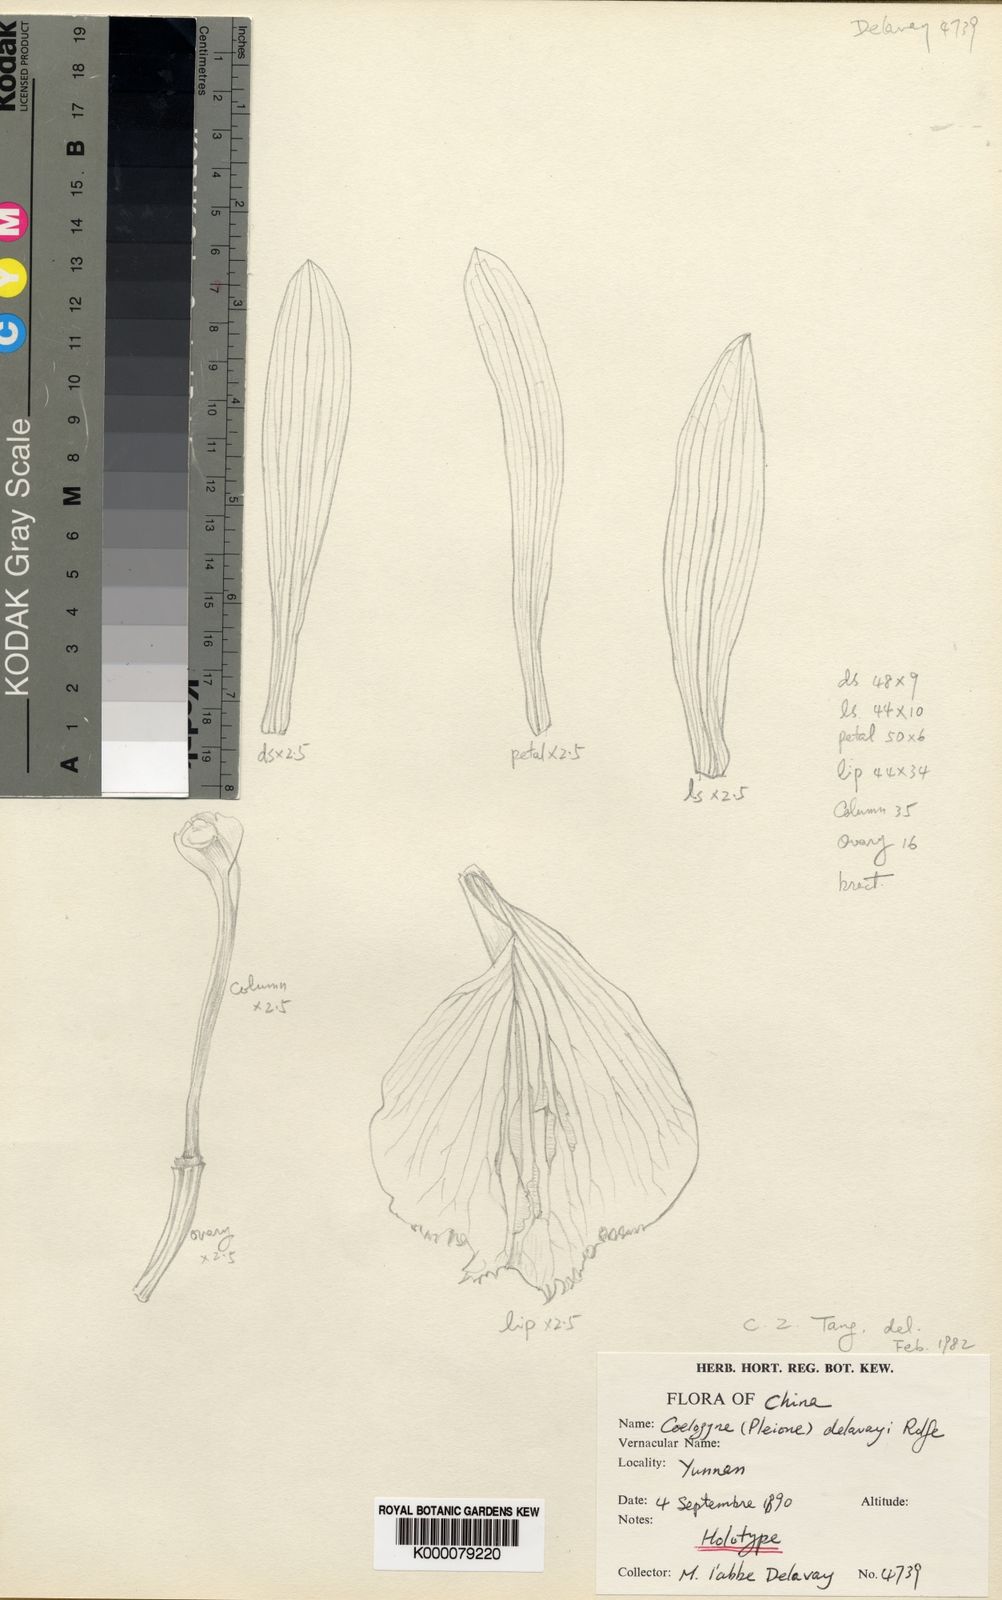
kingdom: Plantae
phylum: Tracheophyta
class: Liliopsida
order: Asparagales
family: Orchidaceae
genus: Pleione
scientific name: Pleione bulbocodioides
